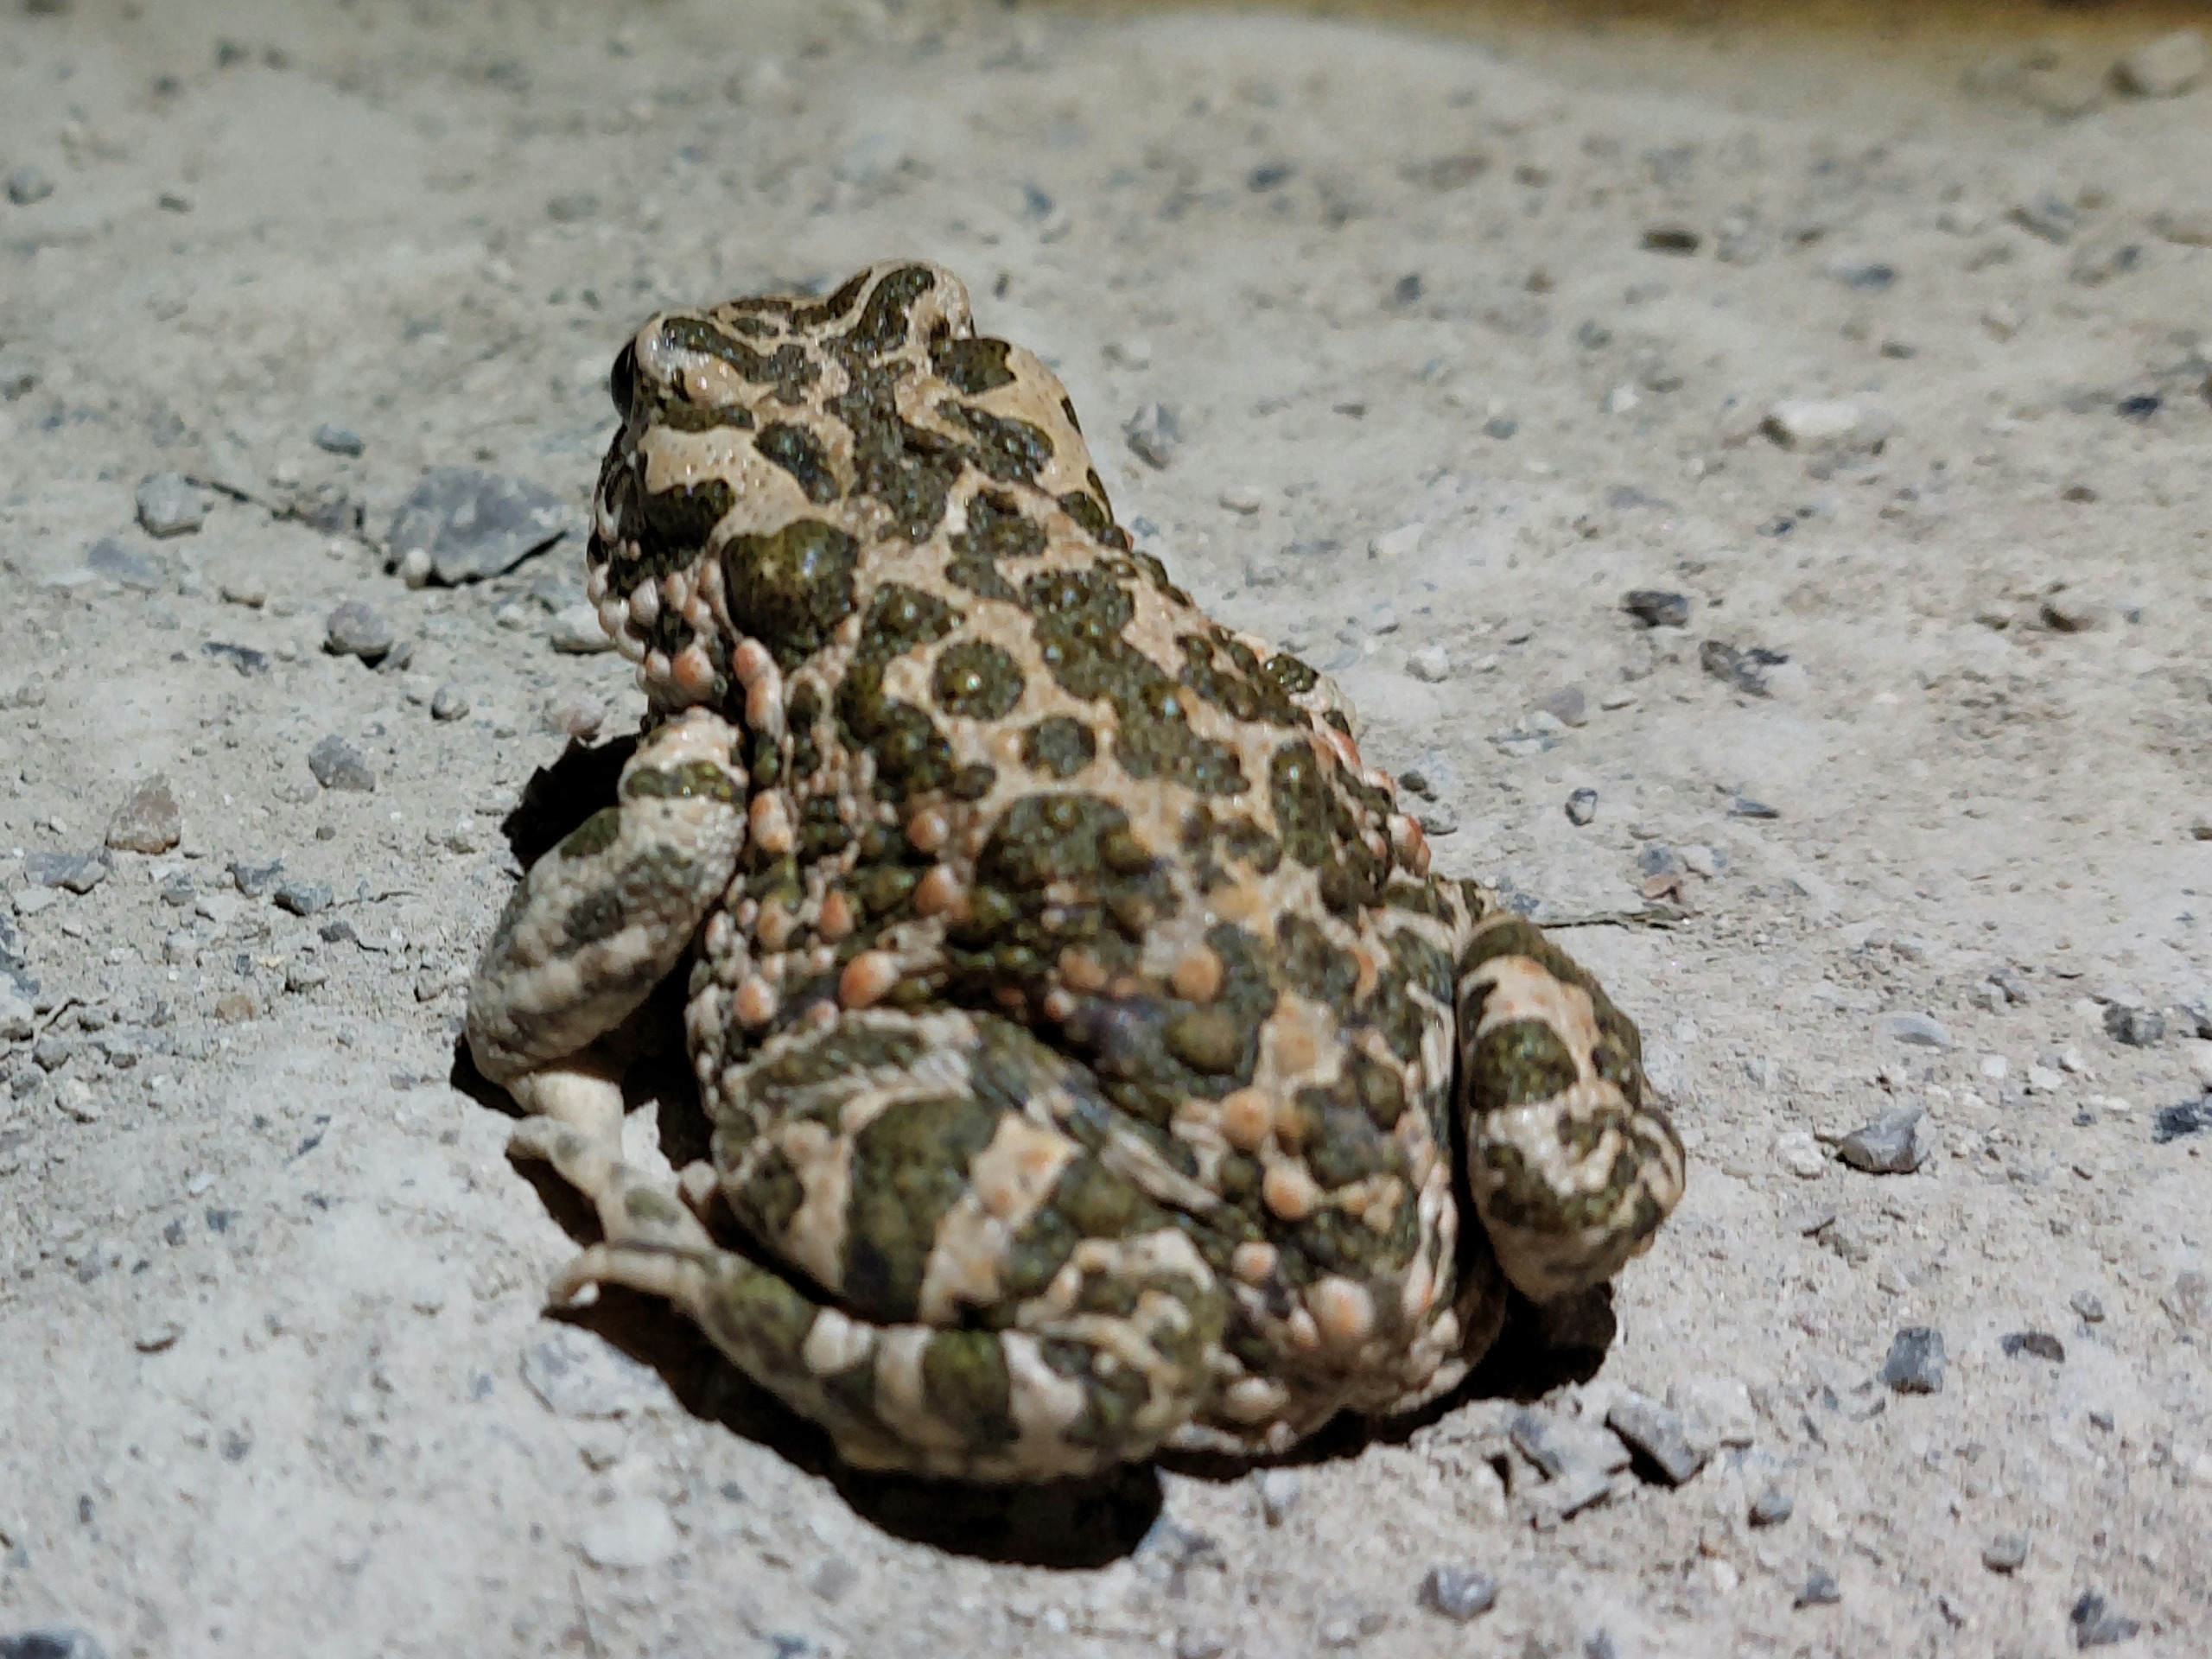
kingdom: Animalia
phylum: Chordata
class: Amphibia
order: Anura
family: Bufonidae
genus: Bufotes
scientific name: Bufotes viridis
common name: Grønbroget tudse
